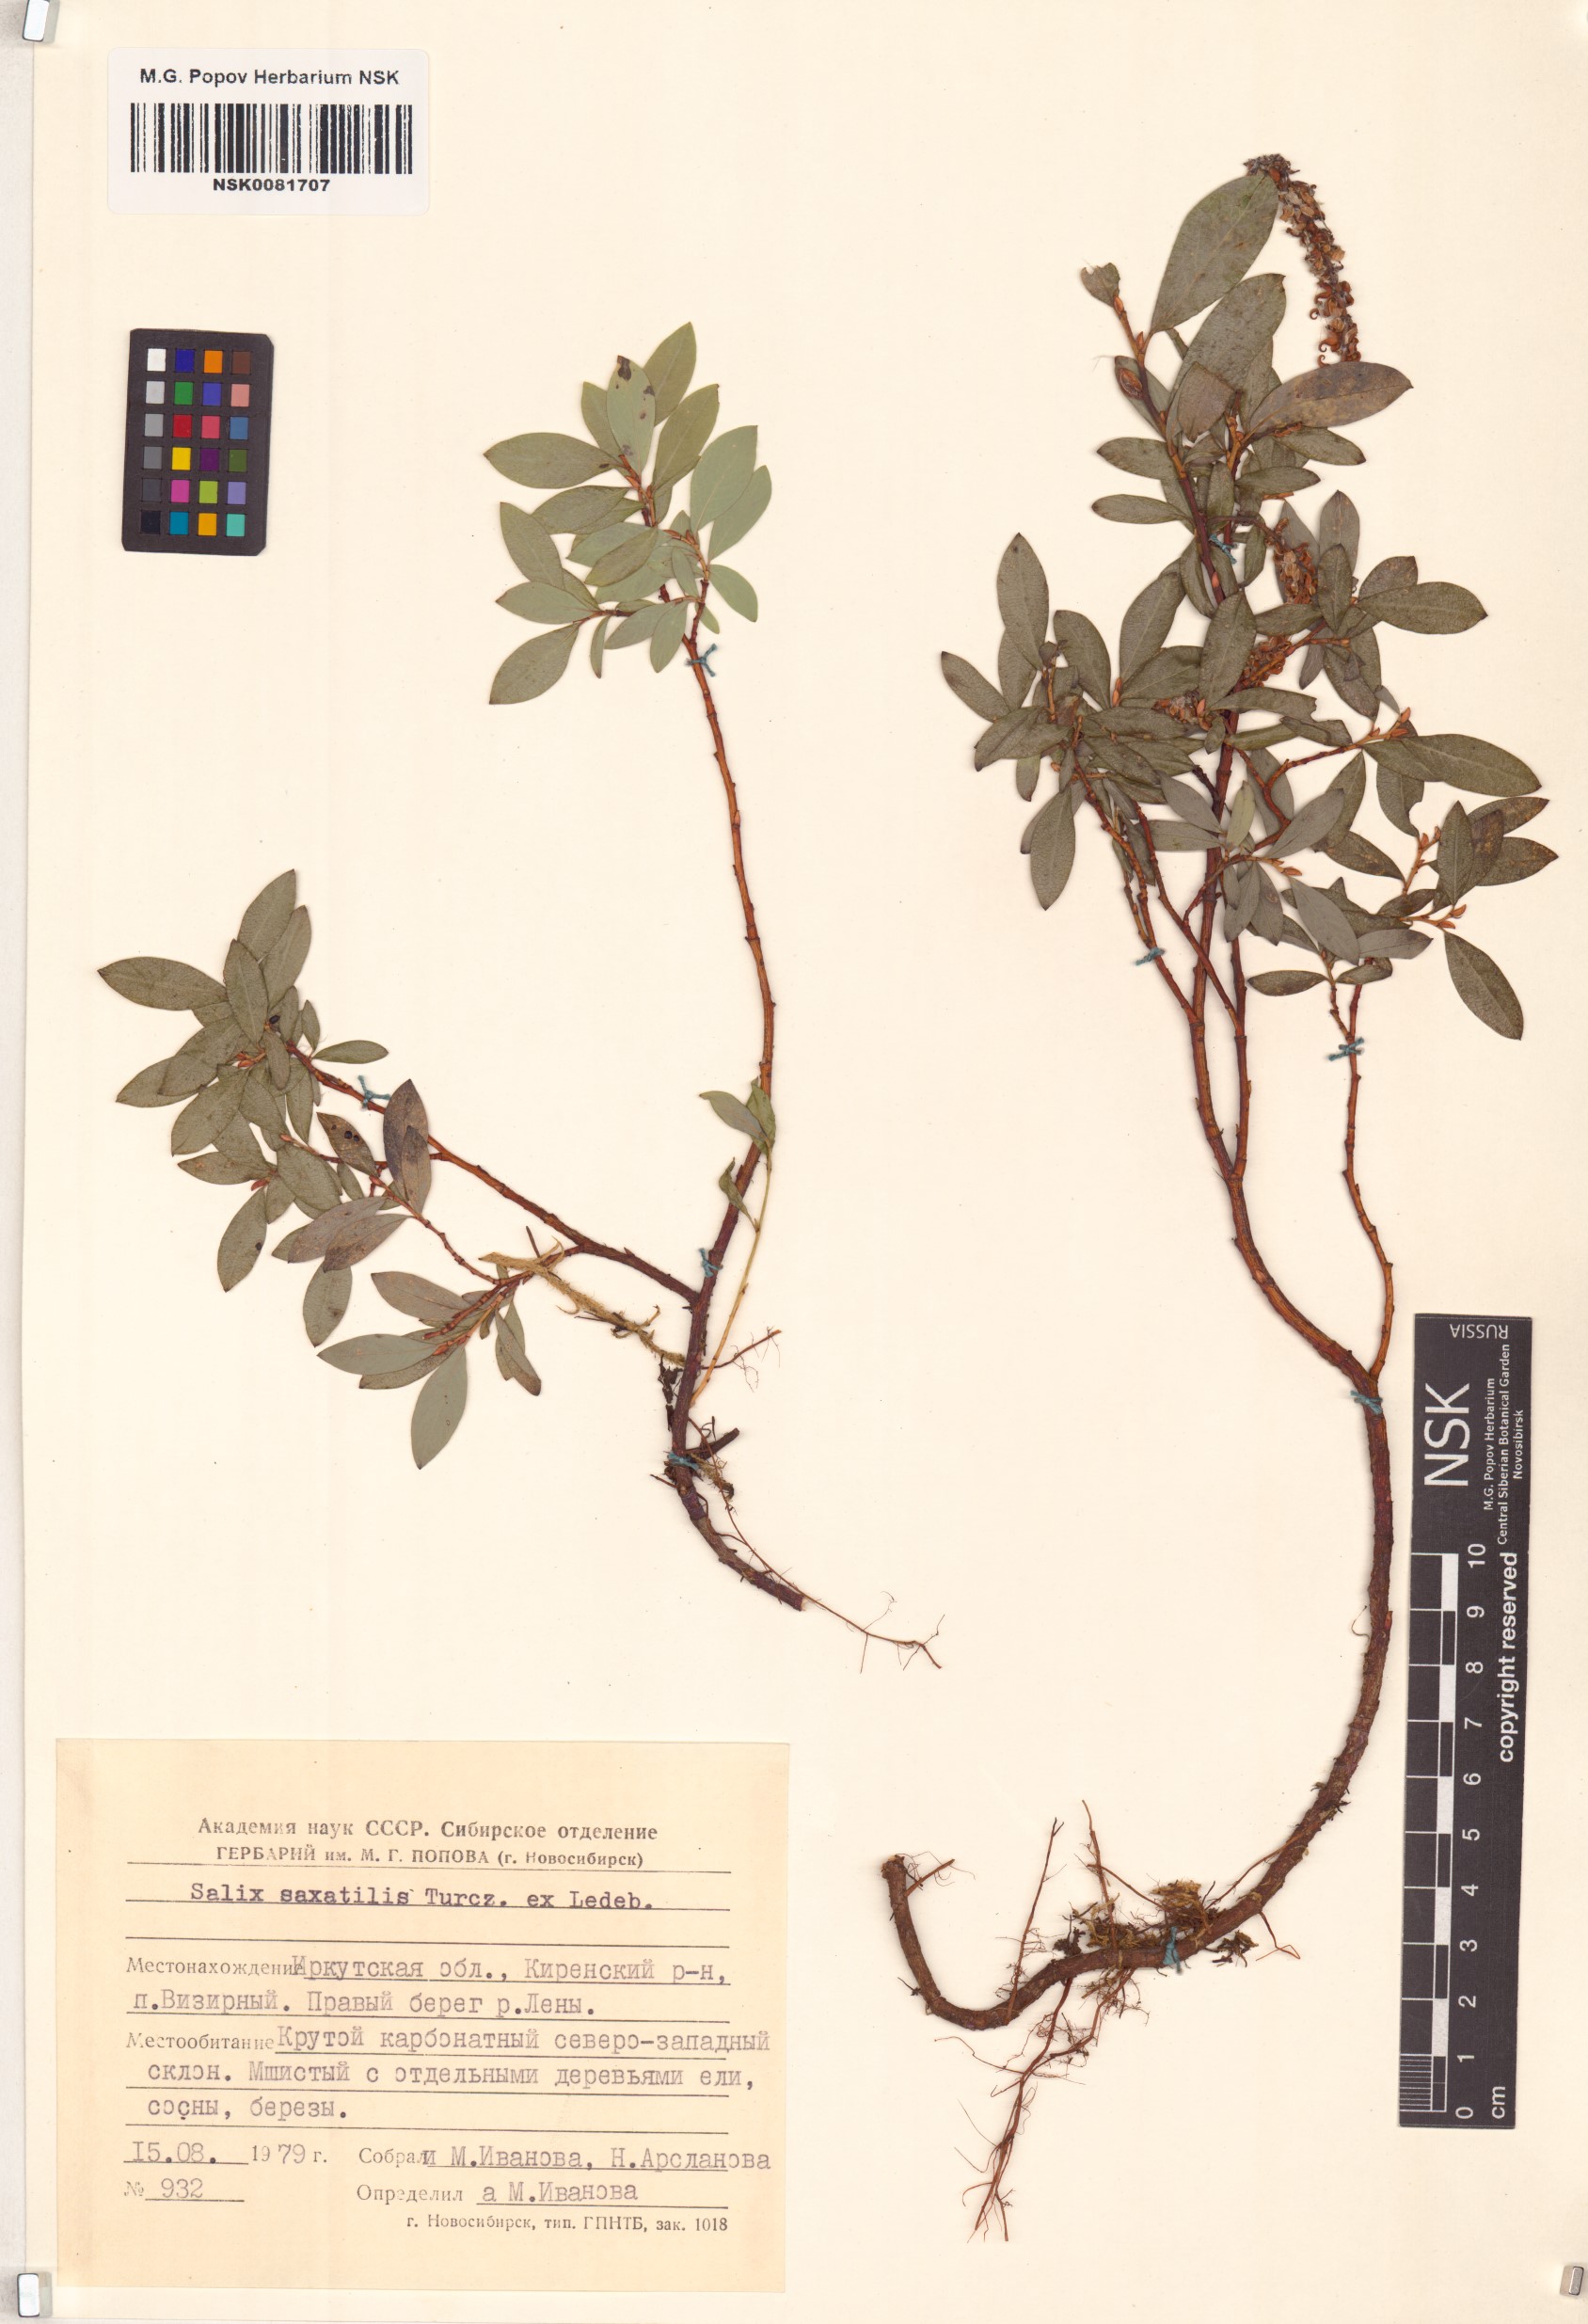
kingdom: Plantae
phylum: Tracheophyta
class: Magnoliopsida
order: Malpighiales
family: Salicaceae
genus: Salix
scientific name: Salix saxatilis
